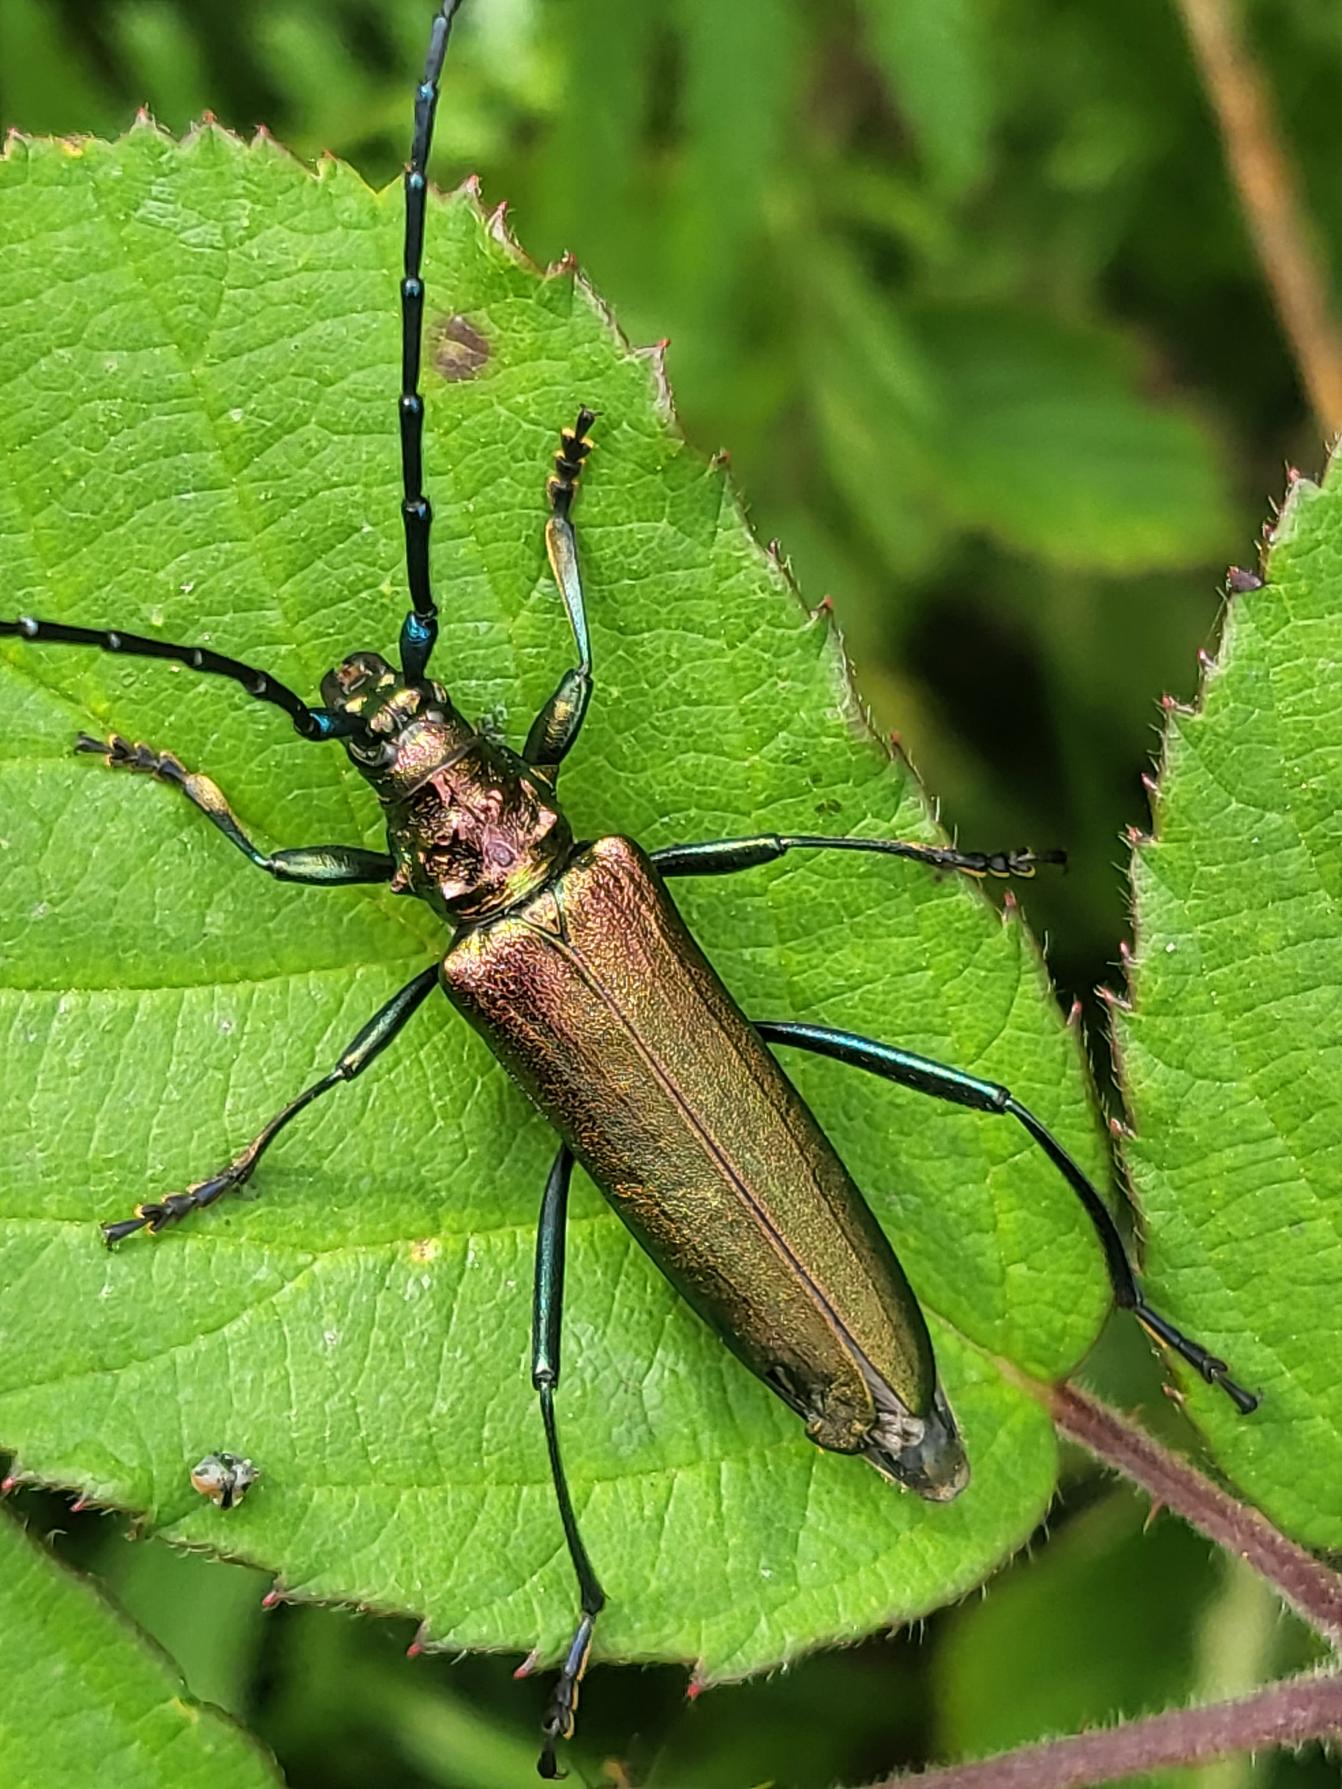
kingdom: Animalia
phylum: Arthropoda
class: Insecta
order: Coleoptera
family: Cerambycidae
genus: Aromia
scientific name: Aromia moschata
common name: Moskusbuk
